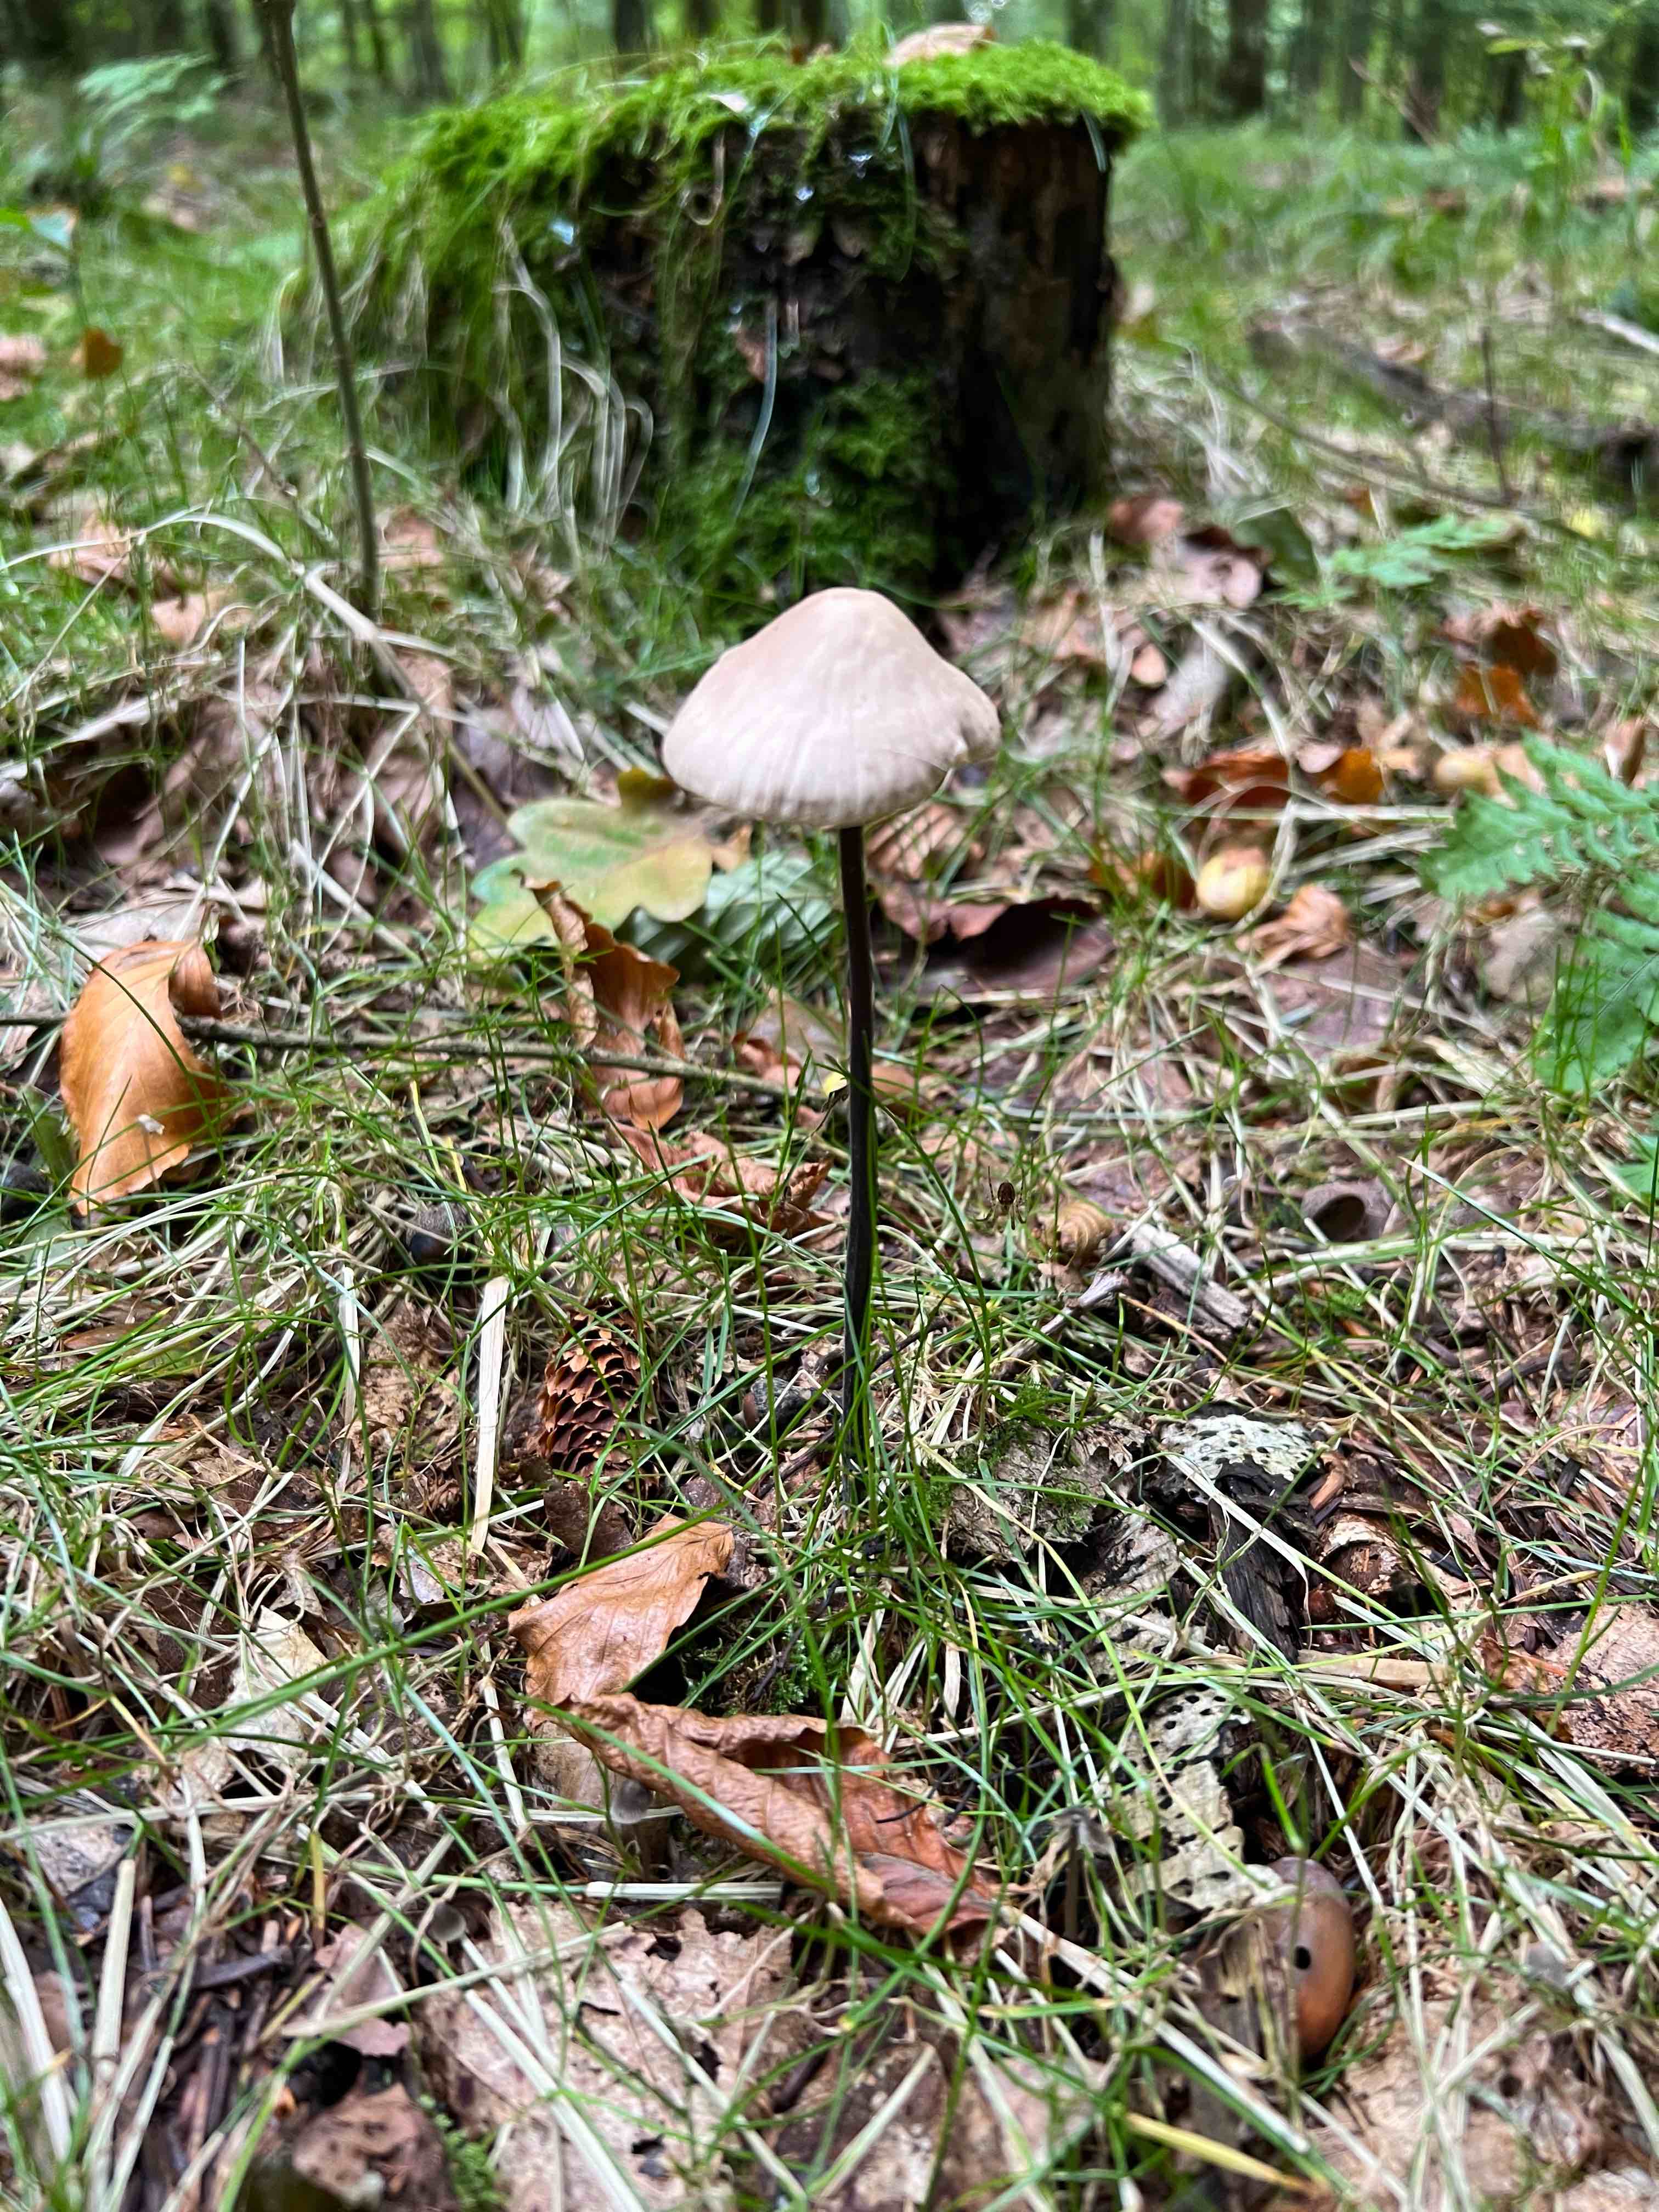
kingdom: Fungi
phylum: Basidiomycota
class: Agaricomycetes
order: Agaricales
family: Omphalotaceae
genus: Mycetinis
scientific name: Mycetinis alliaceus
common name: stor løghat
